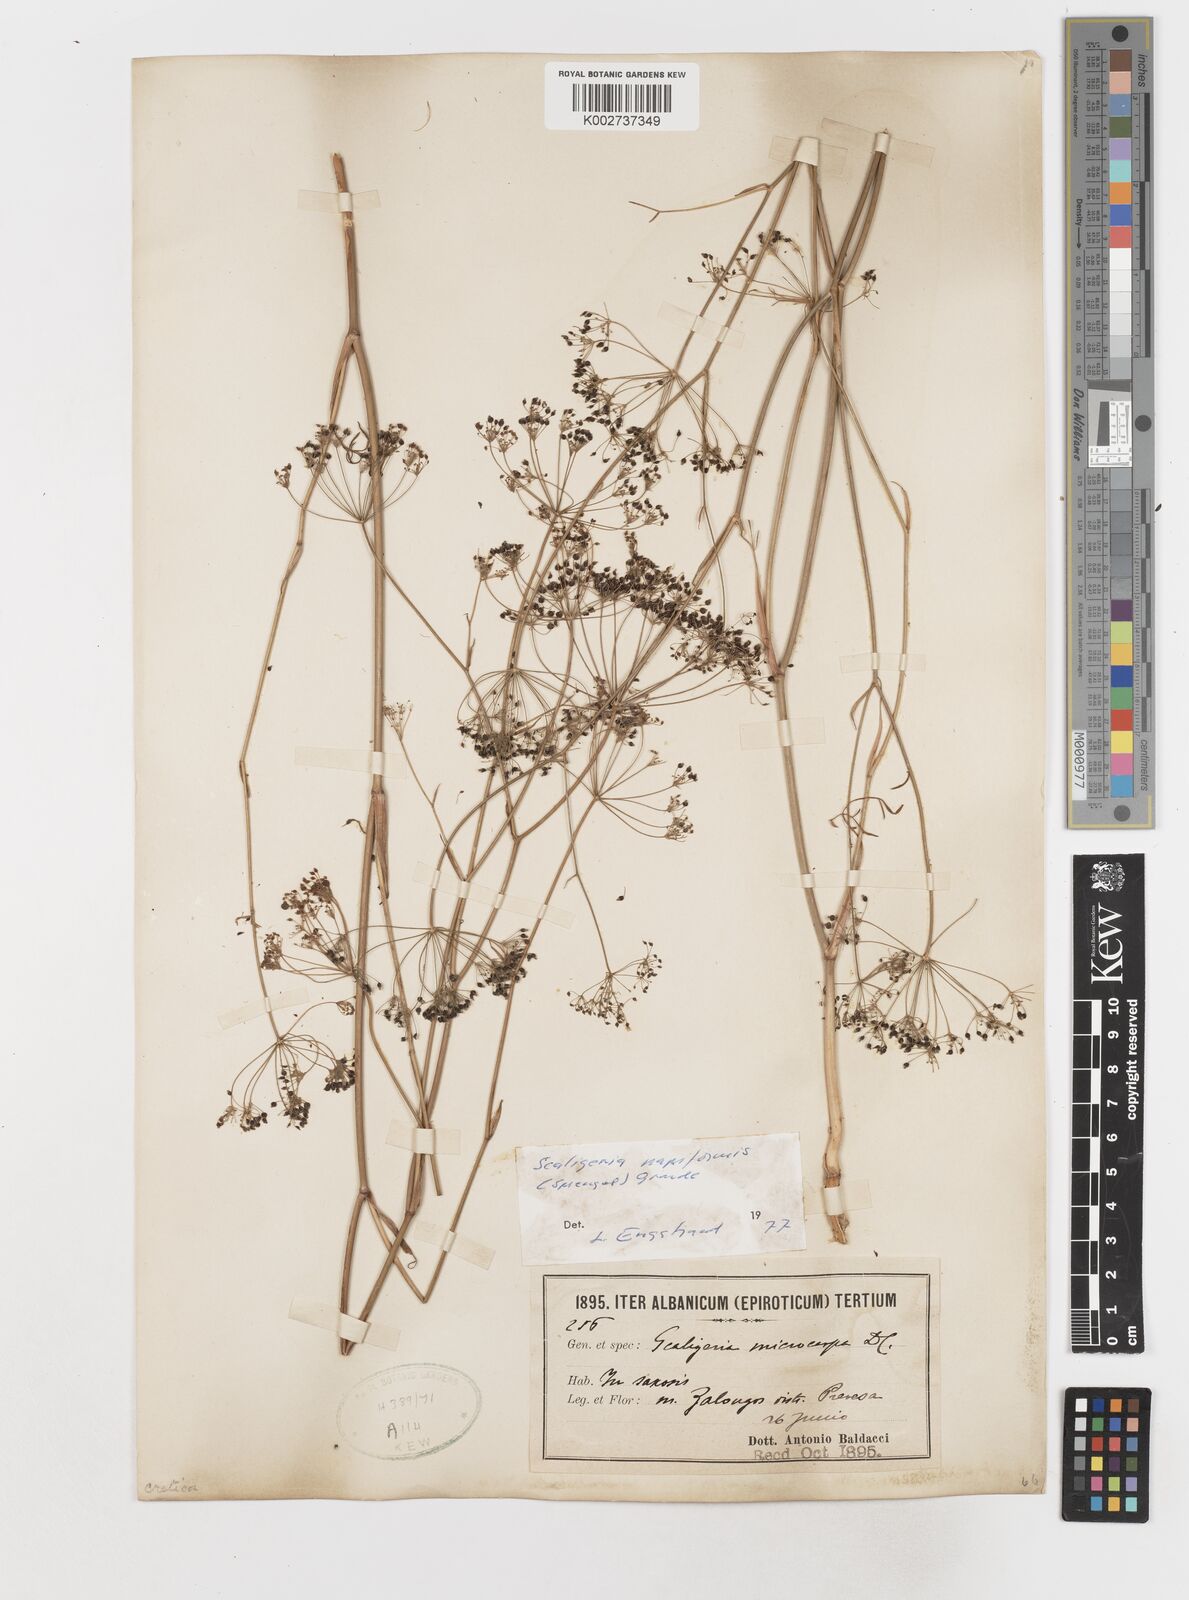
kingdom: Plantae
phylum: Tracheophyta
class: Magnoliopsida
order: Apiales
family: Apiaceae
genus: Scaligeria
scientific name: Scaligeria napiformis
